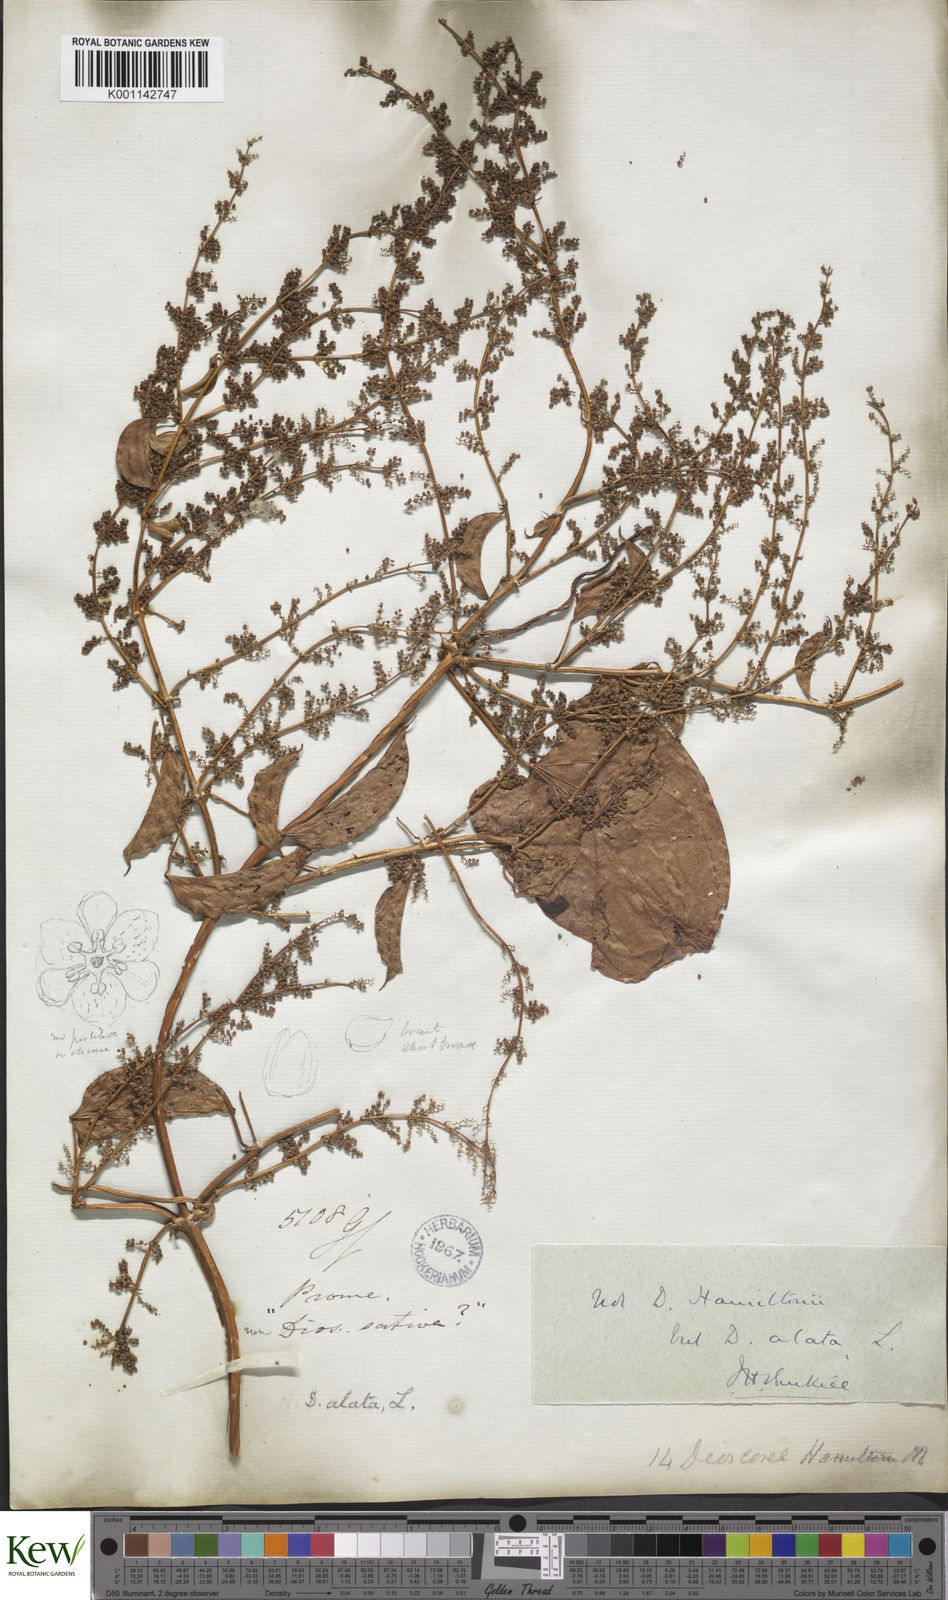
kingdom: Plantae
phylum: Tracheophyta
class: Liliopsida
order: Dioscoreales
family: Dioscoreaceae
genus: Dioscorea
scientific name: Dioscorea alata
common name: Water yam
